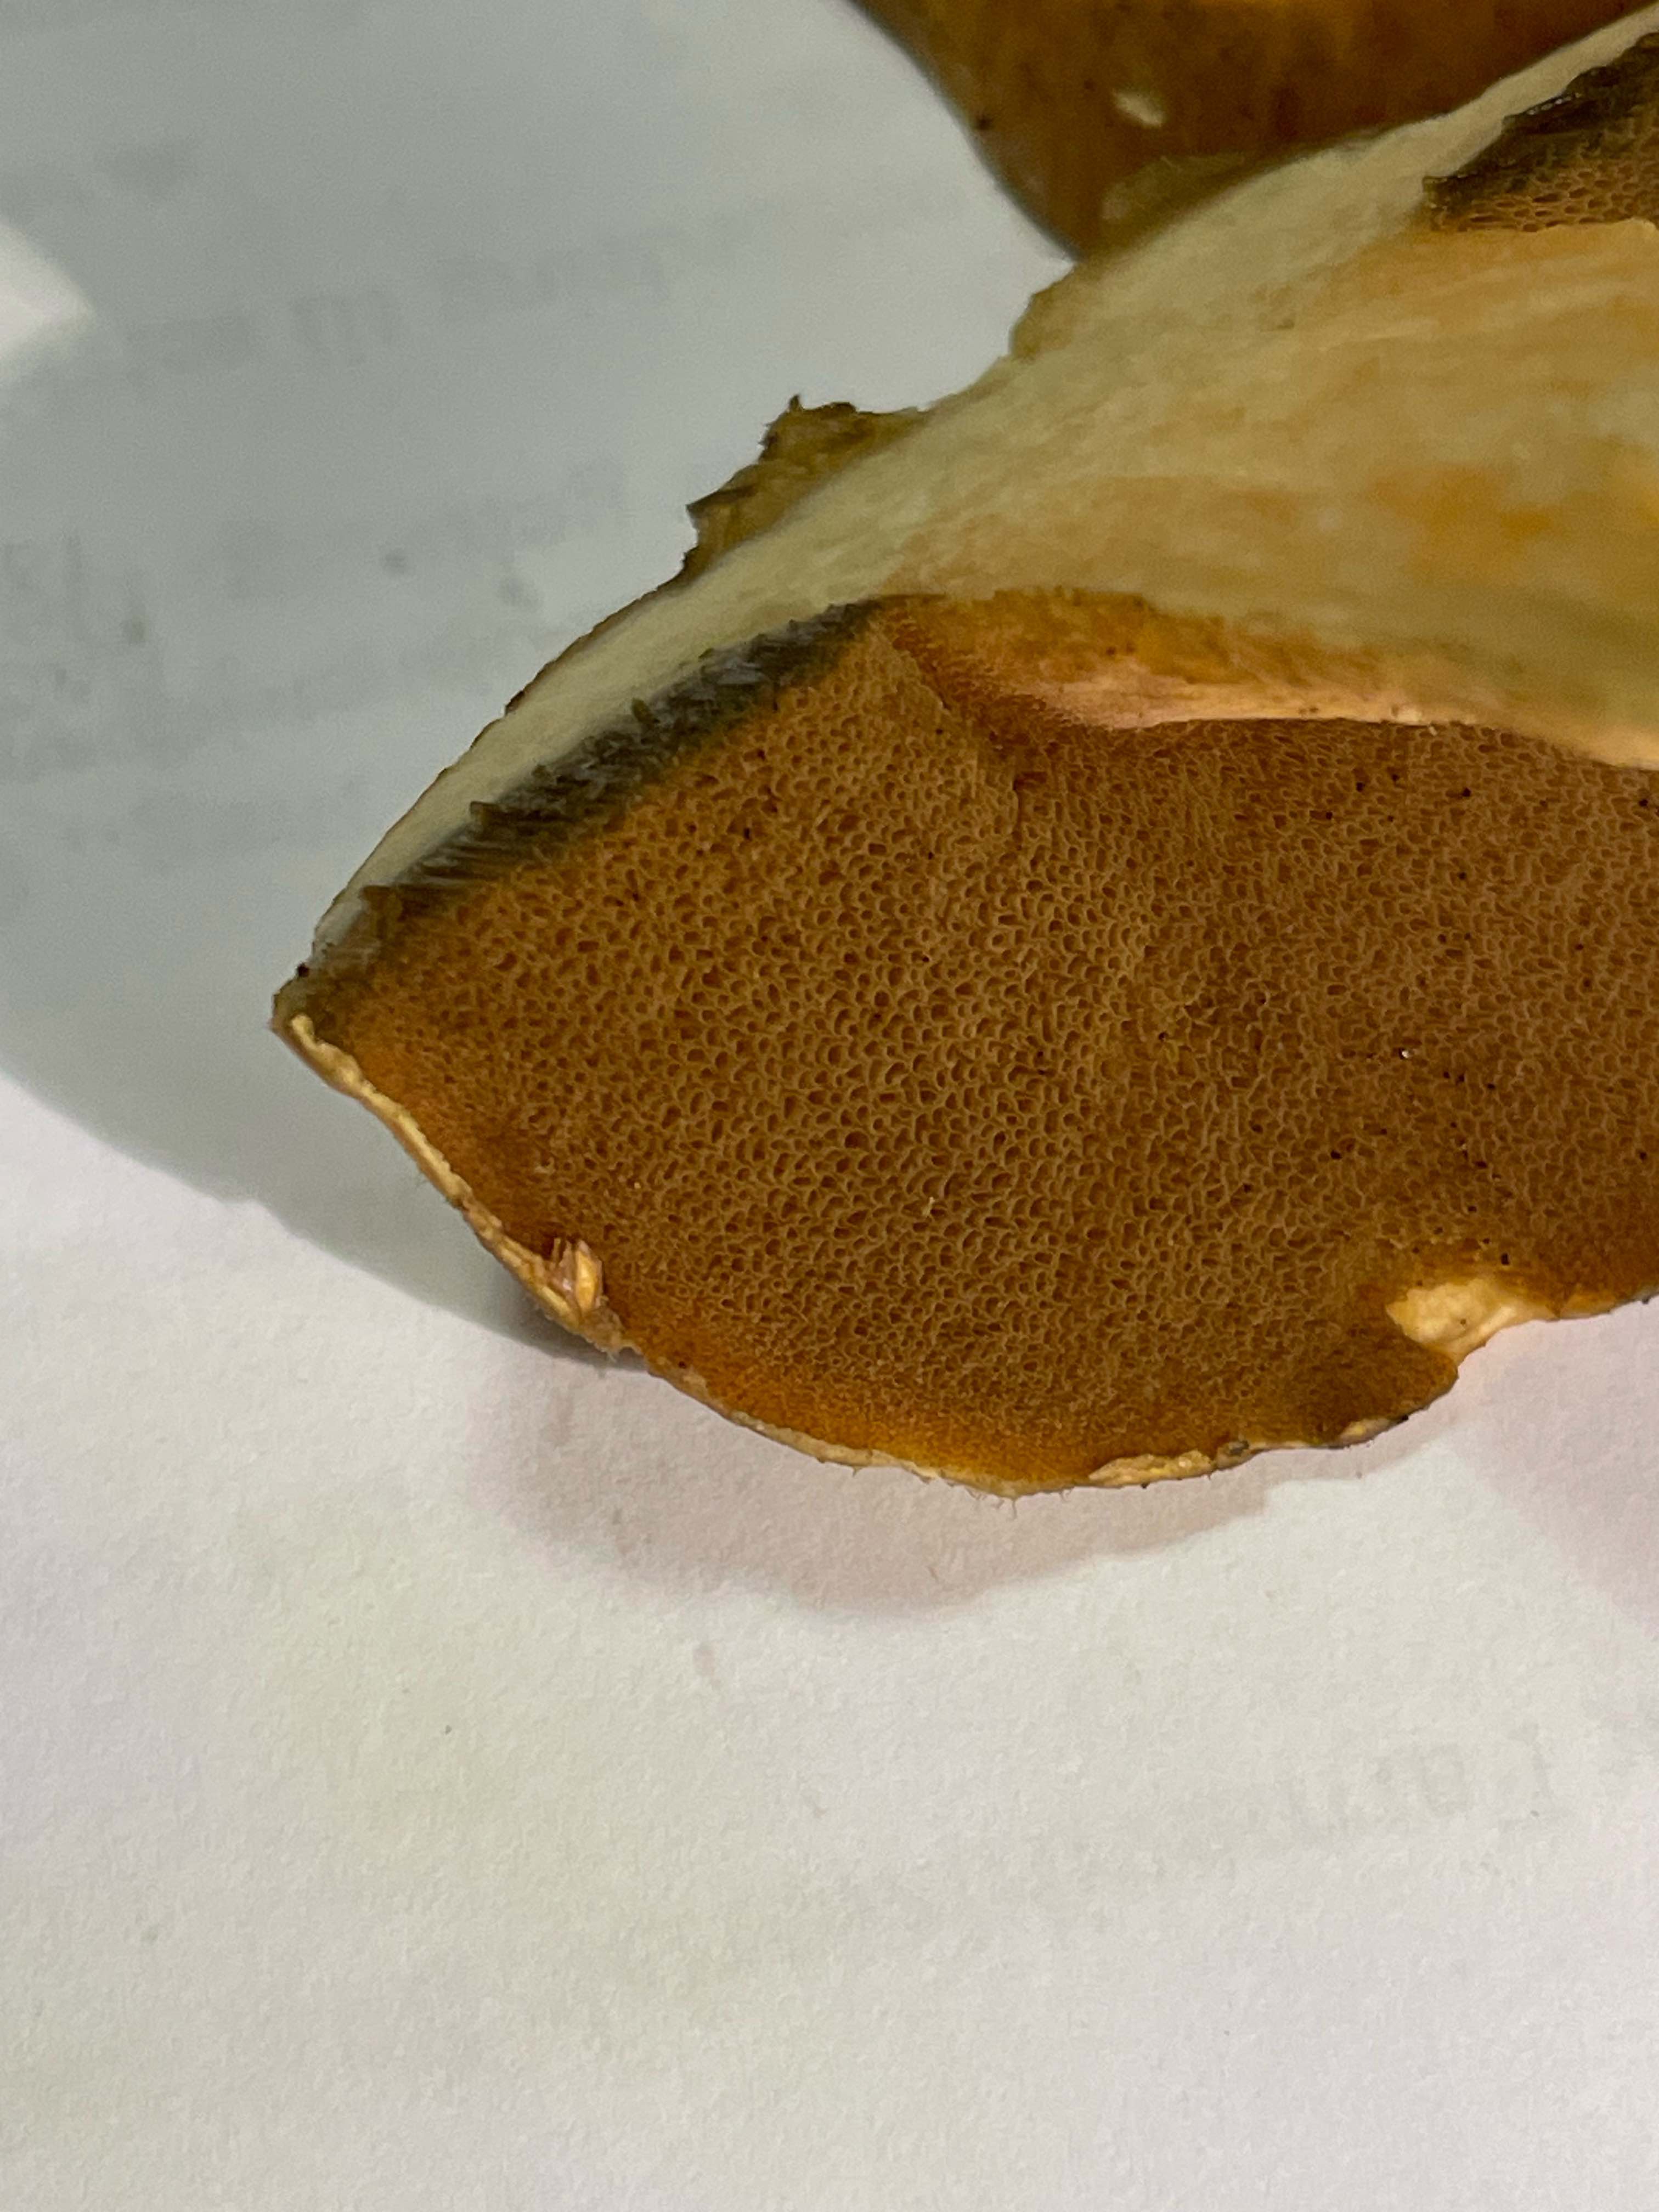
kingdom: Fungi
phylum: Basidiomycota
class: Agaricomycetes
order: Boletales
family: Suillaceae
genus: Suillus
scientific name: Suillus variegatus
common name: broget slimrørhat
